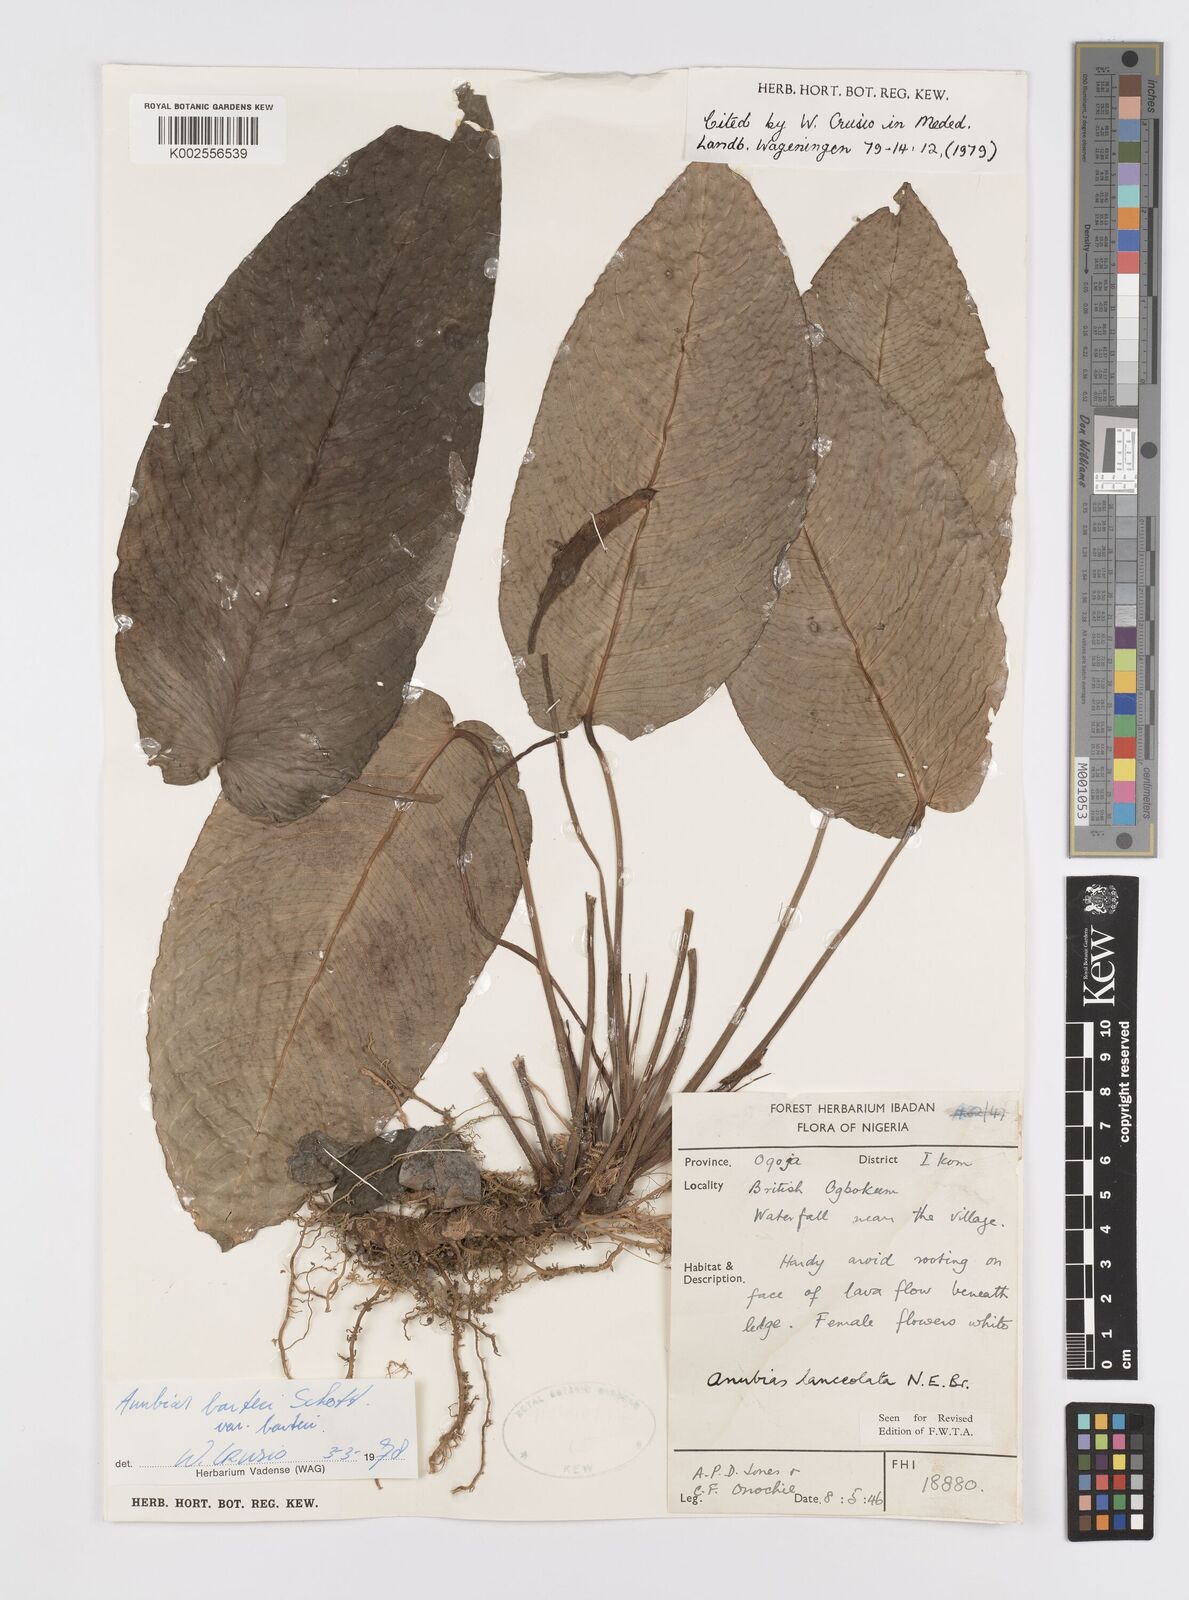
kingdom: Plantae
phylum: Tracheophyta
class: Liliopsida
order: Alismatales
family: Araceae
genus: Anubias
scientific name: Anubias barteri
